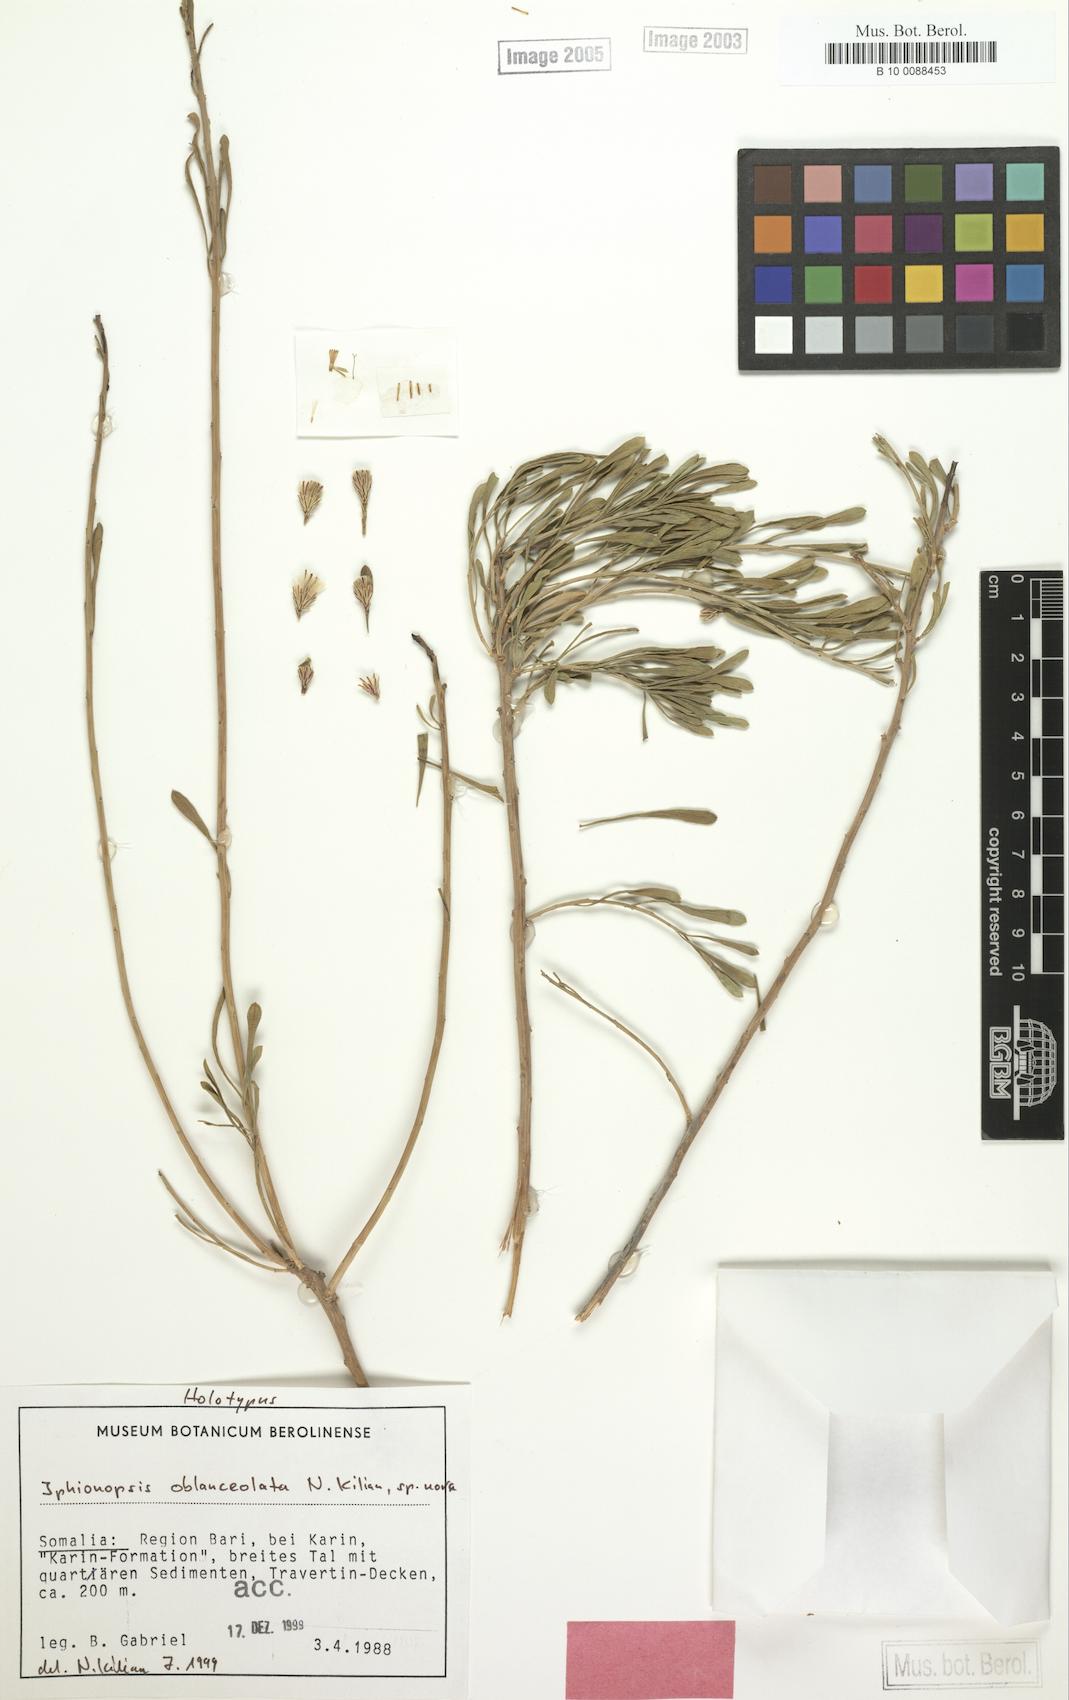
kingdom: Plantae
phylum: Tracheophyta
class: Magnoliopsida
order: Asterales
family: Asteraceae
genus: Iphionopsis
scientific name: Iphionopsis oblanceolata
